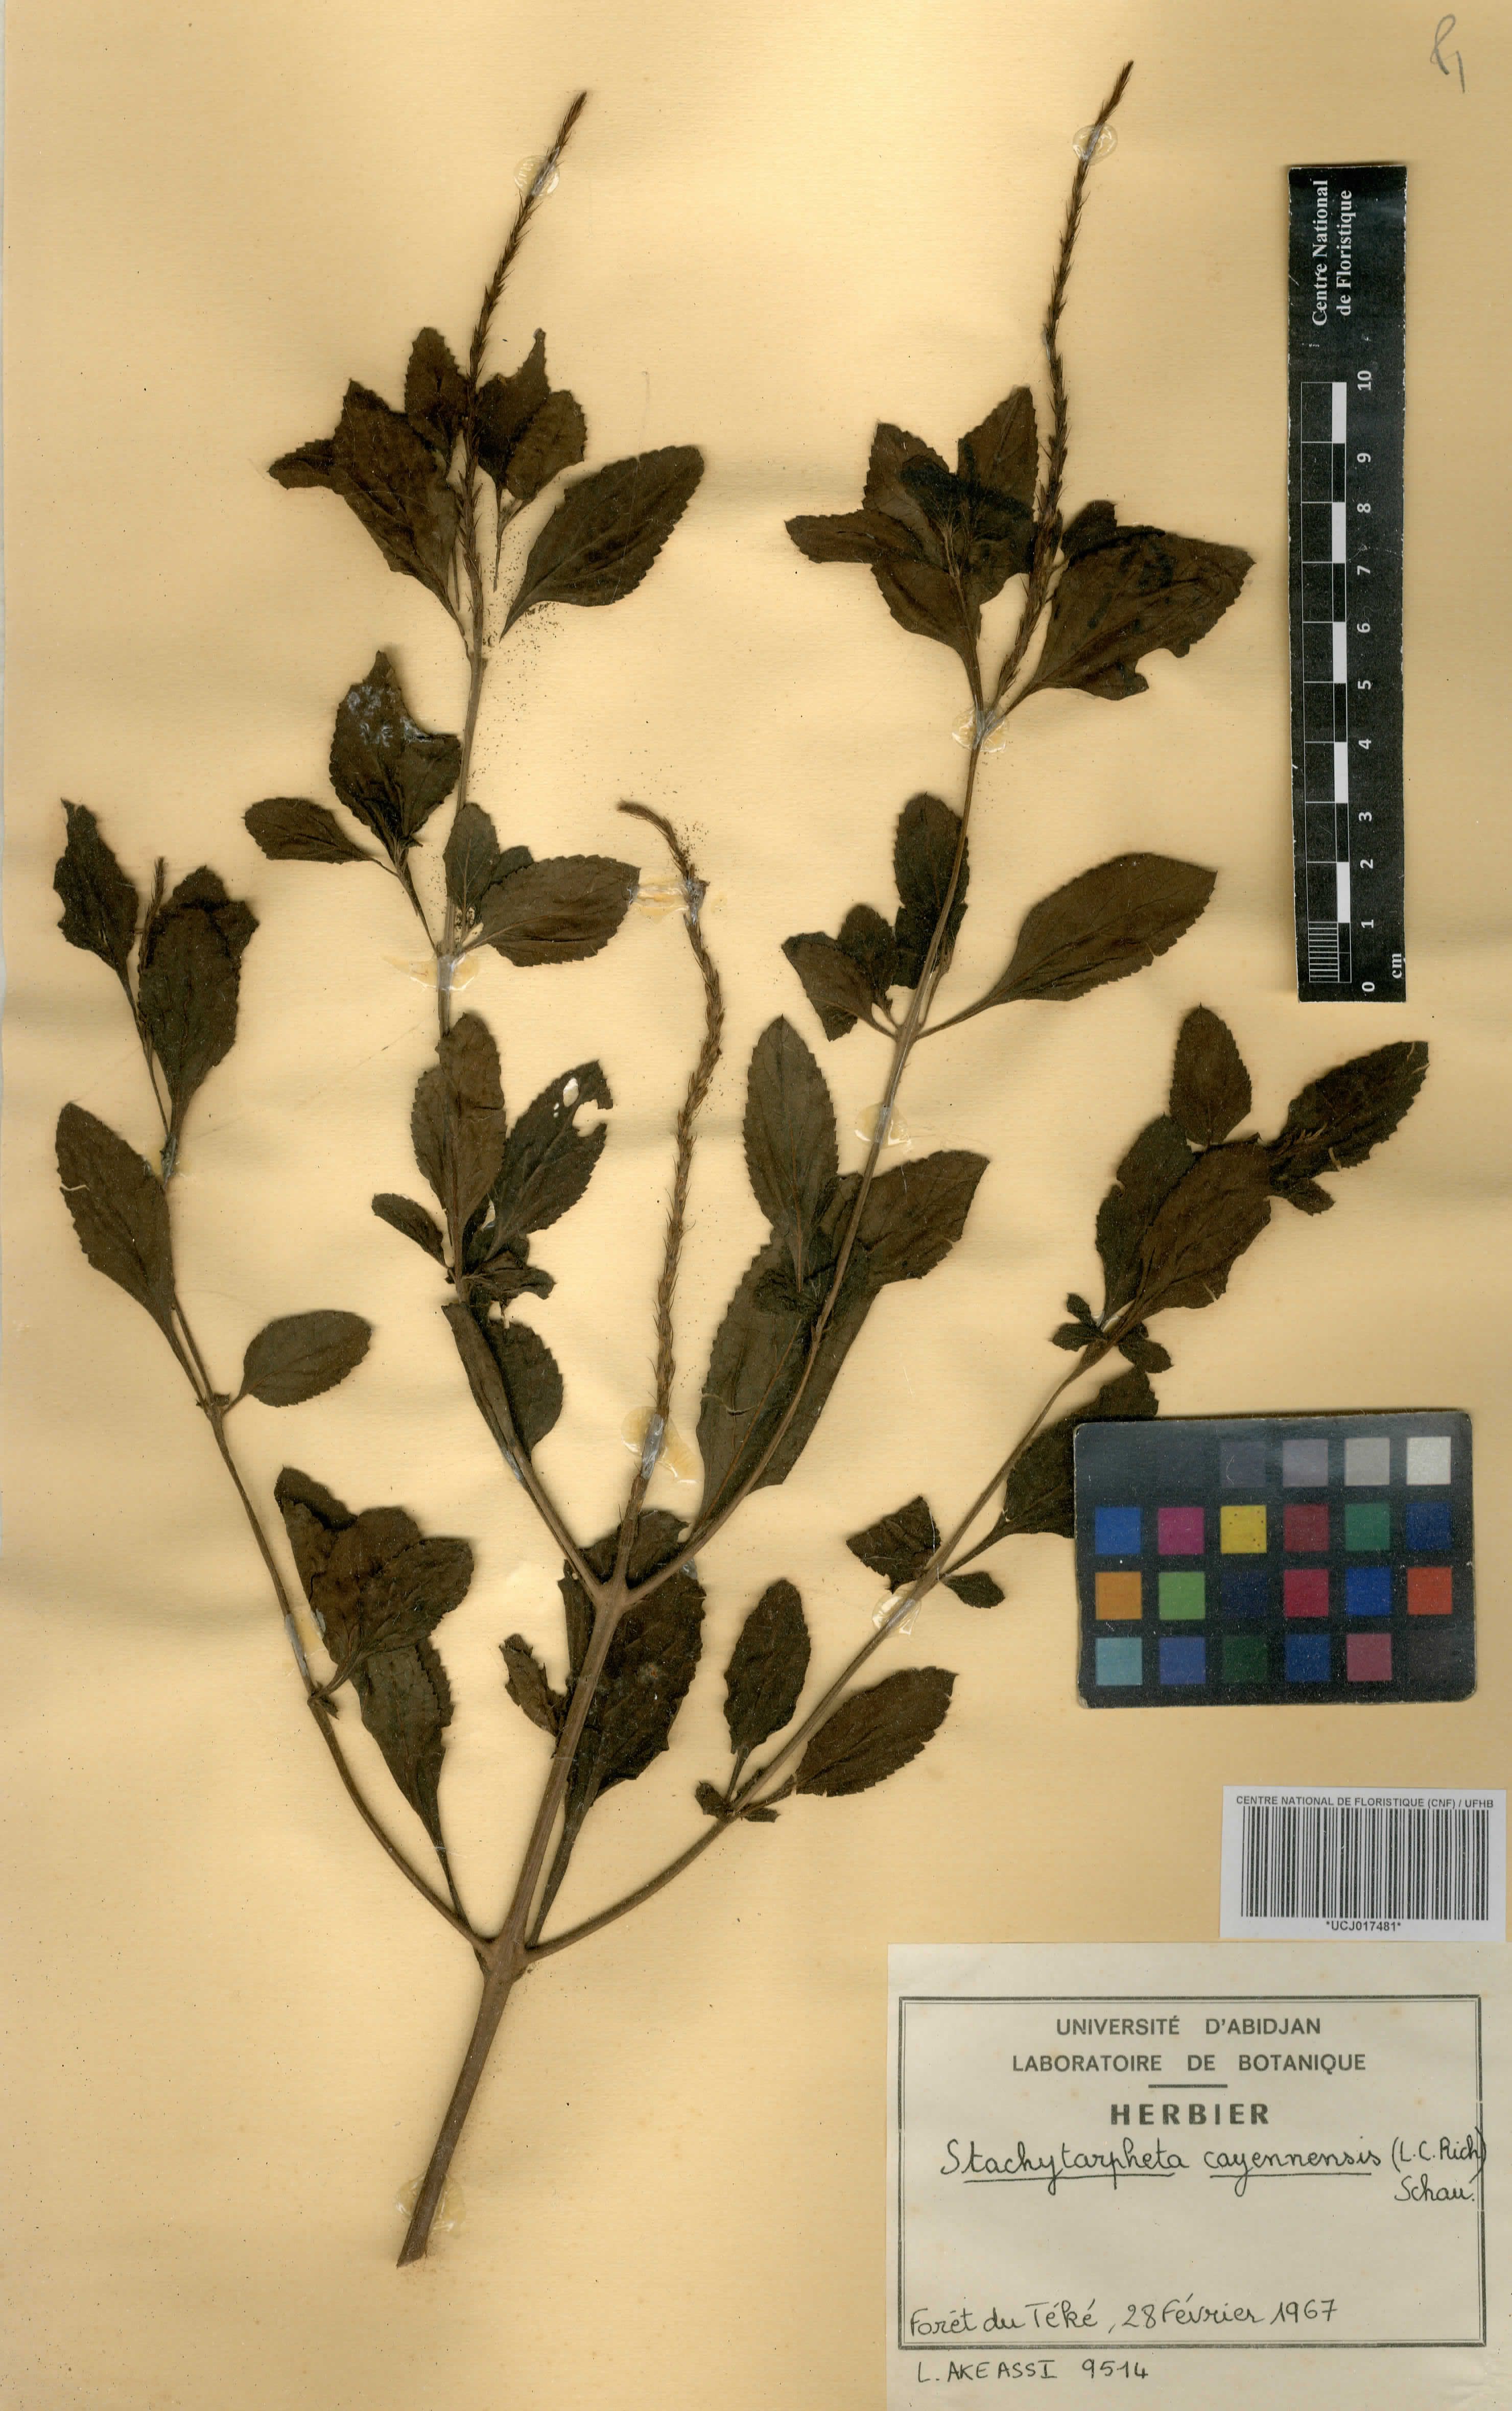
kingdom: Plantae
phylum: Tracheophyta
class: Magnoliopsida
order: Lamiales
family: Verbenaceae
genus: Stachytarpheta
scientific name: Stachytarpheta cayennensis
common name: Cayenne porterweed
